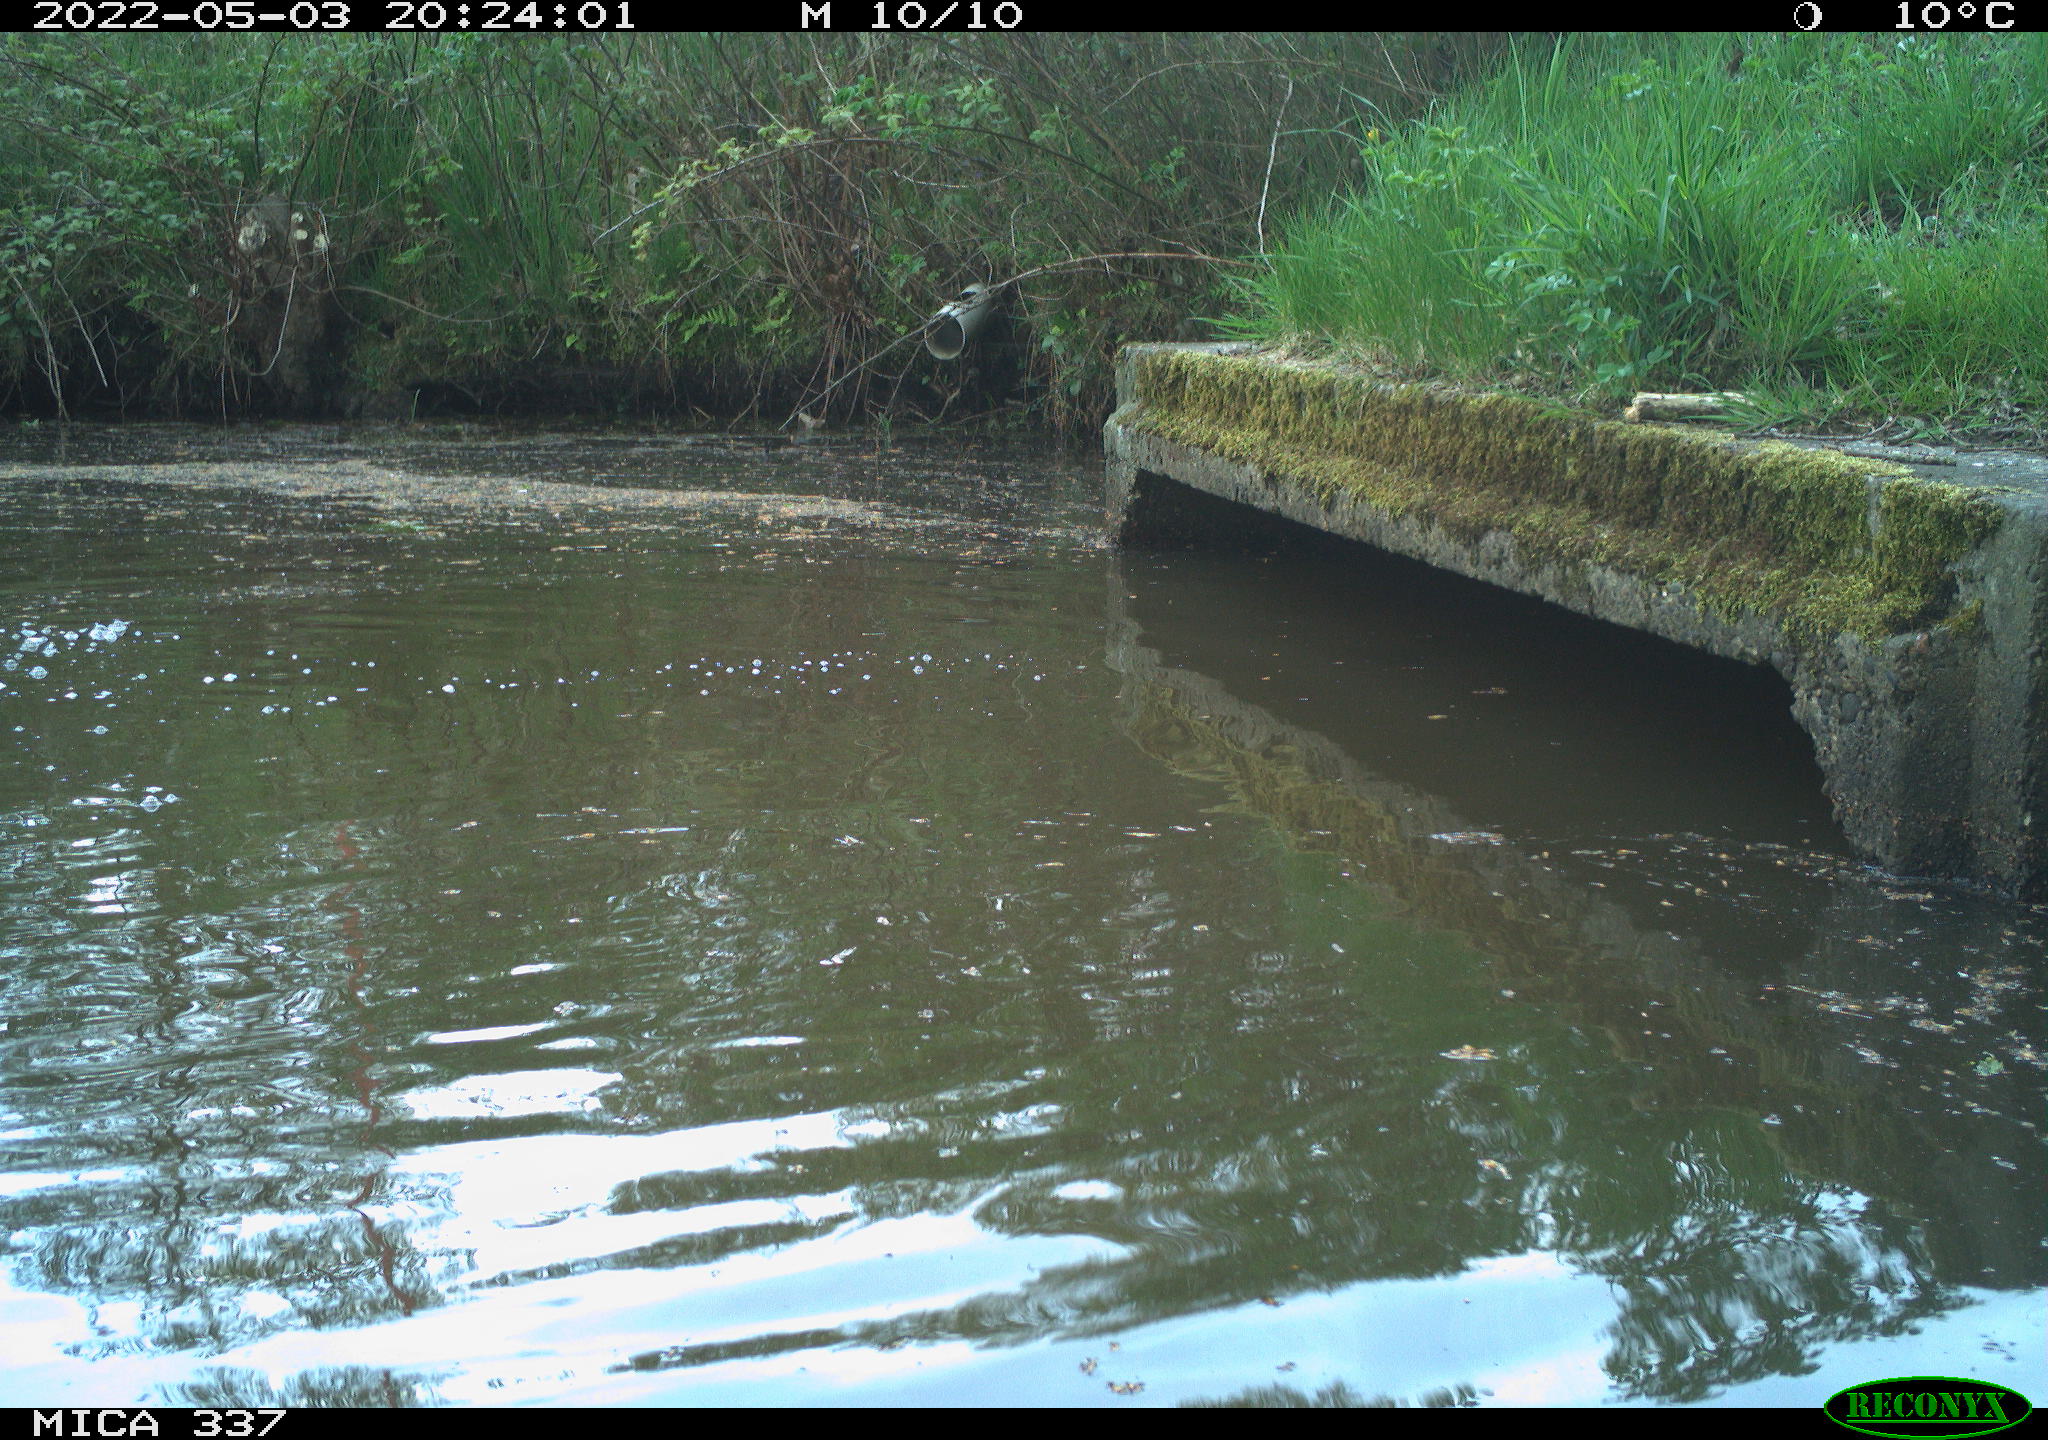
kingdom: Animalia
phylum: Chordata
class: Aves
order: Anseriformes
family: Anatidae
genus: Anas
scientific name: Anas platyrhynchos
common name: Mallard
